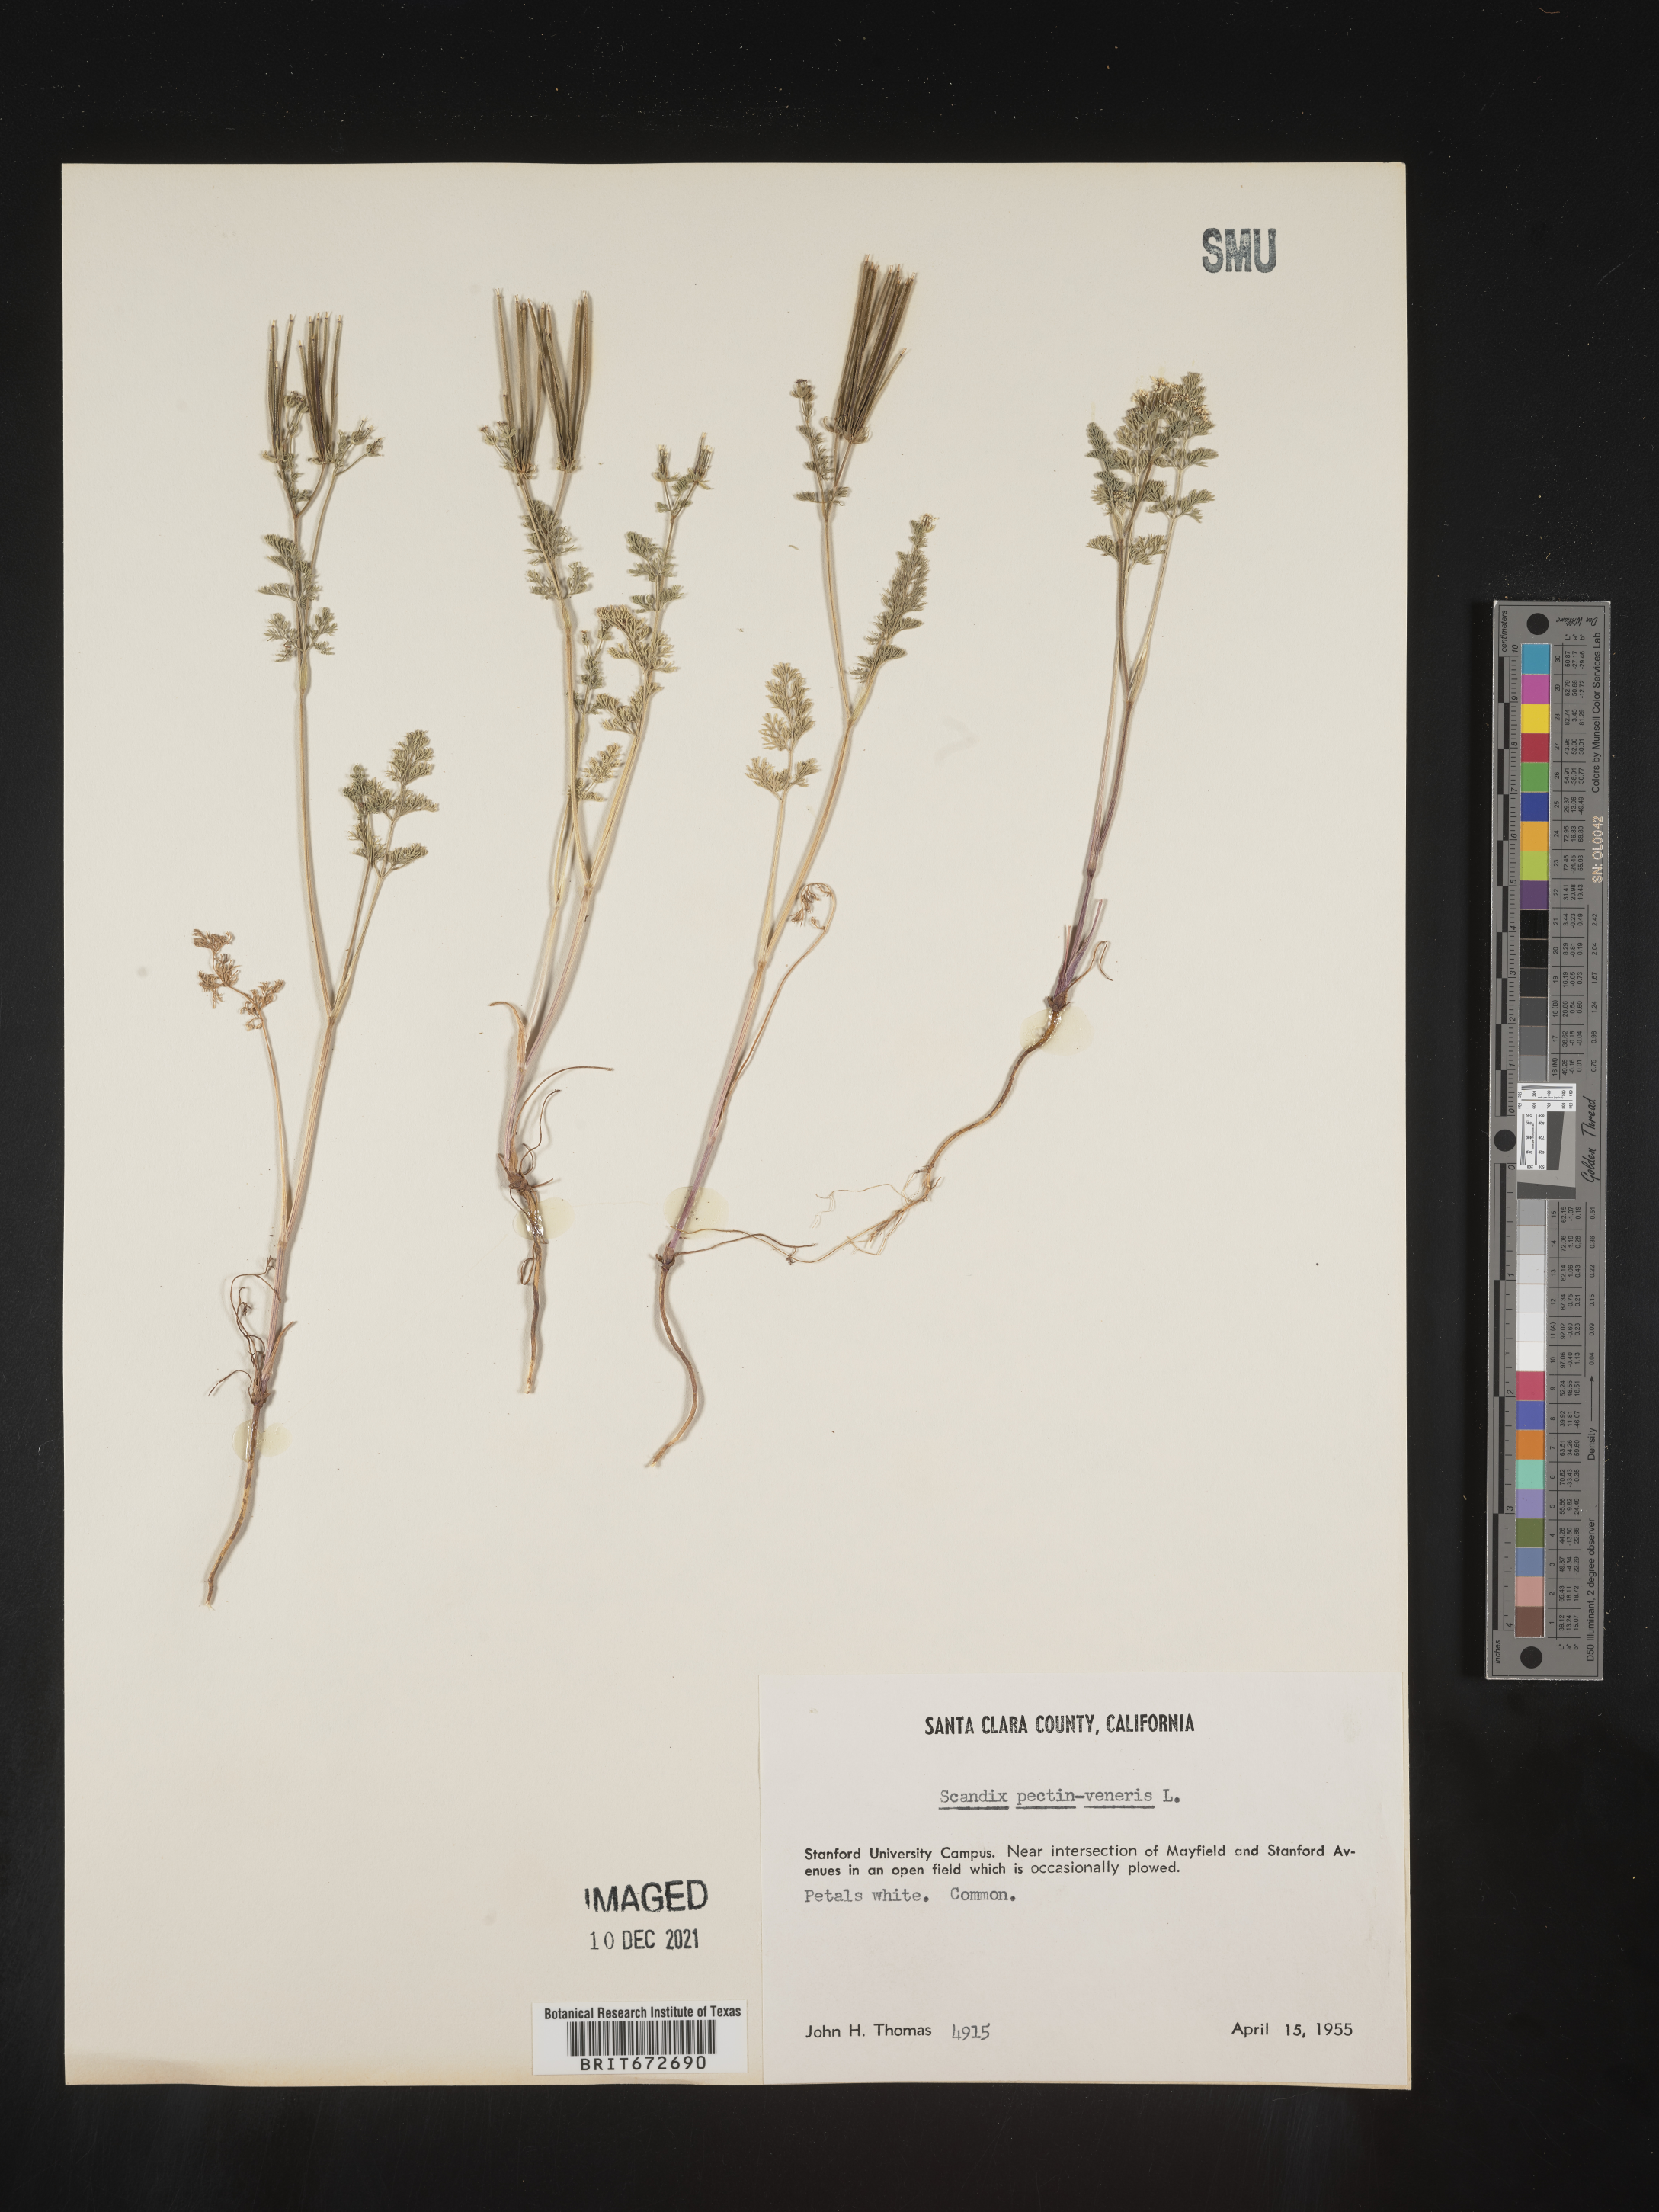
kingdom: Plantae
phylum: Tracheophyta
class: Magnoliopsida
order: Apiales
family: Apiaceae
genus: Scandix
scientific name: Scandix
